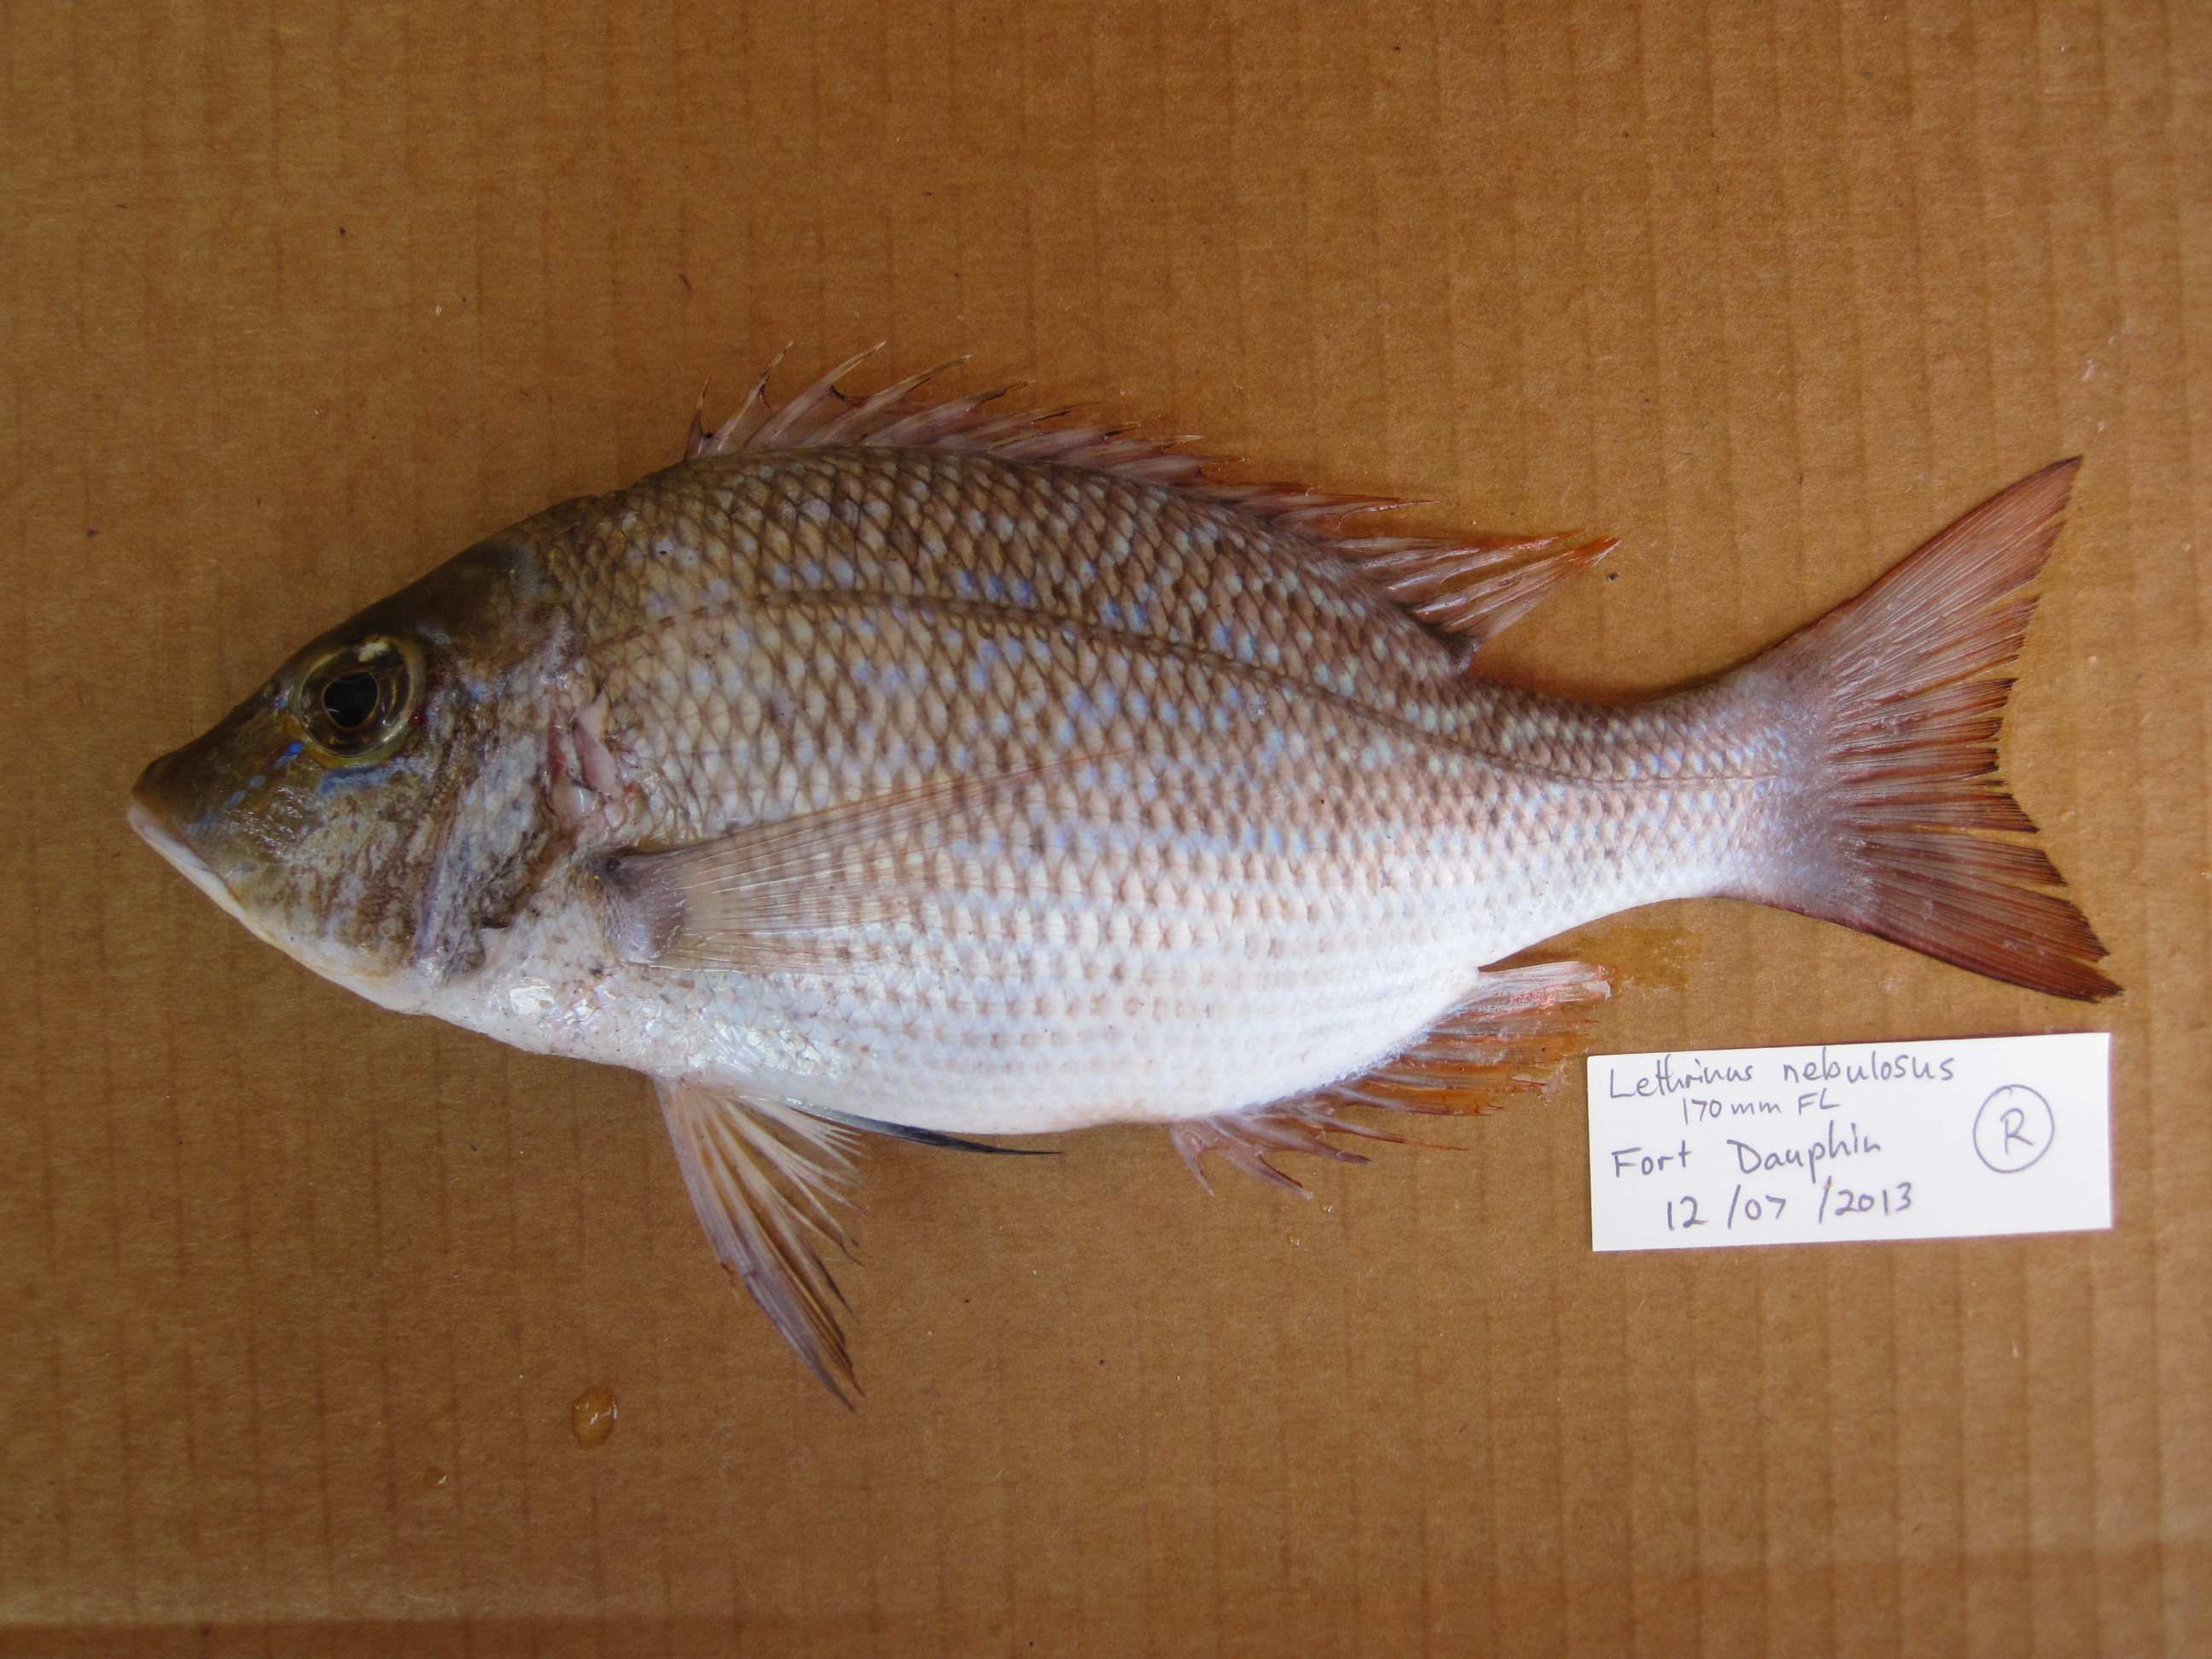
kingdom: Animalia
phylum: Chordata
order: Perciformes
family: Lethrinidae
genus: Lethrinus
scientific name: Lethrinus nebulosus
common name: Spangled emperor
